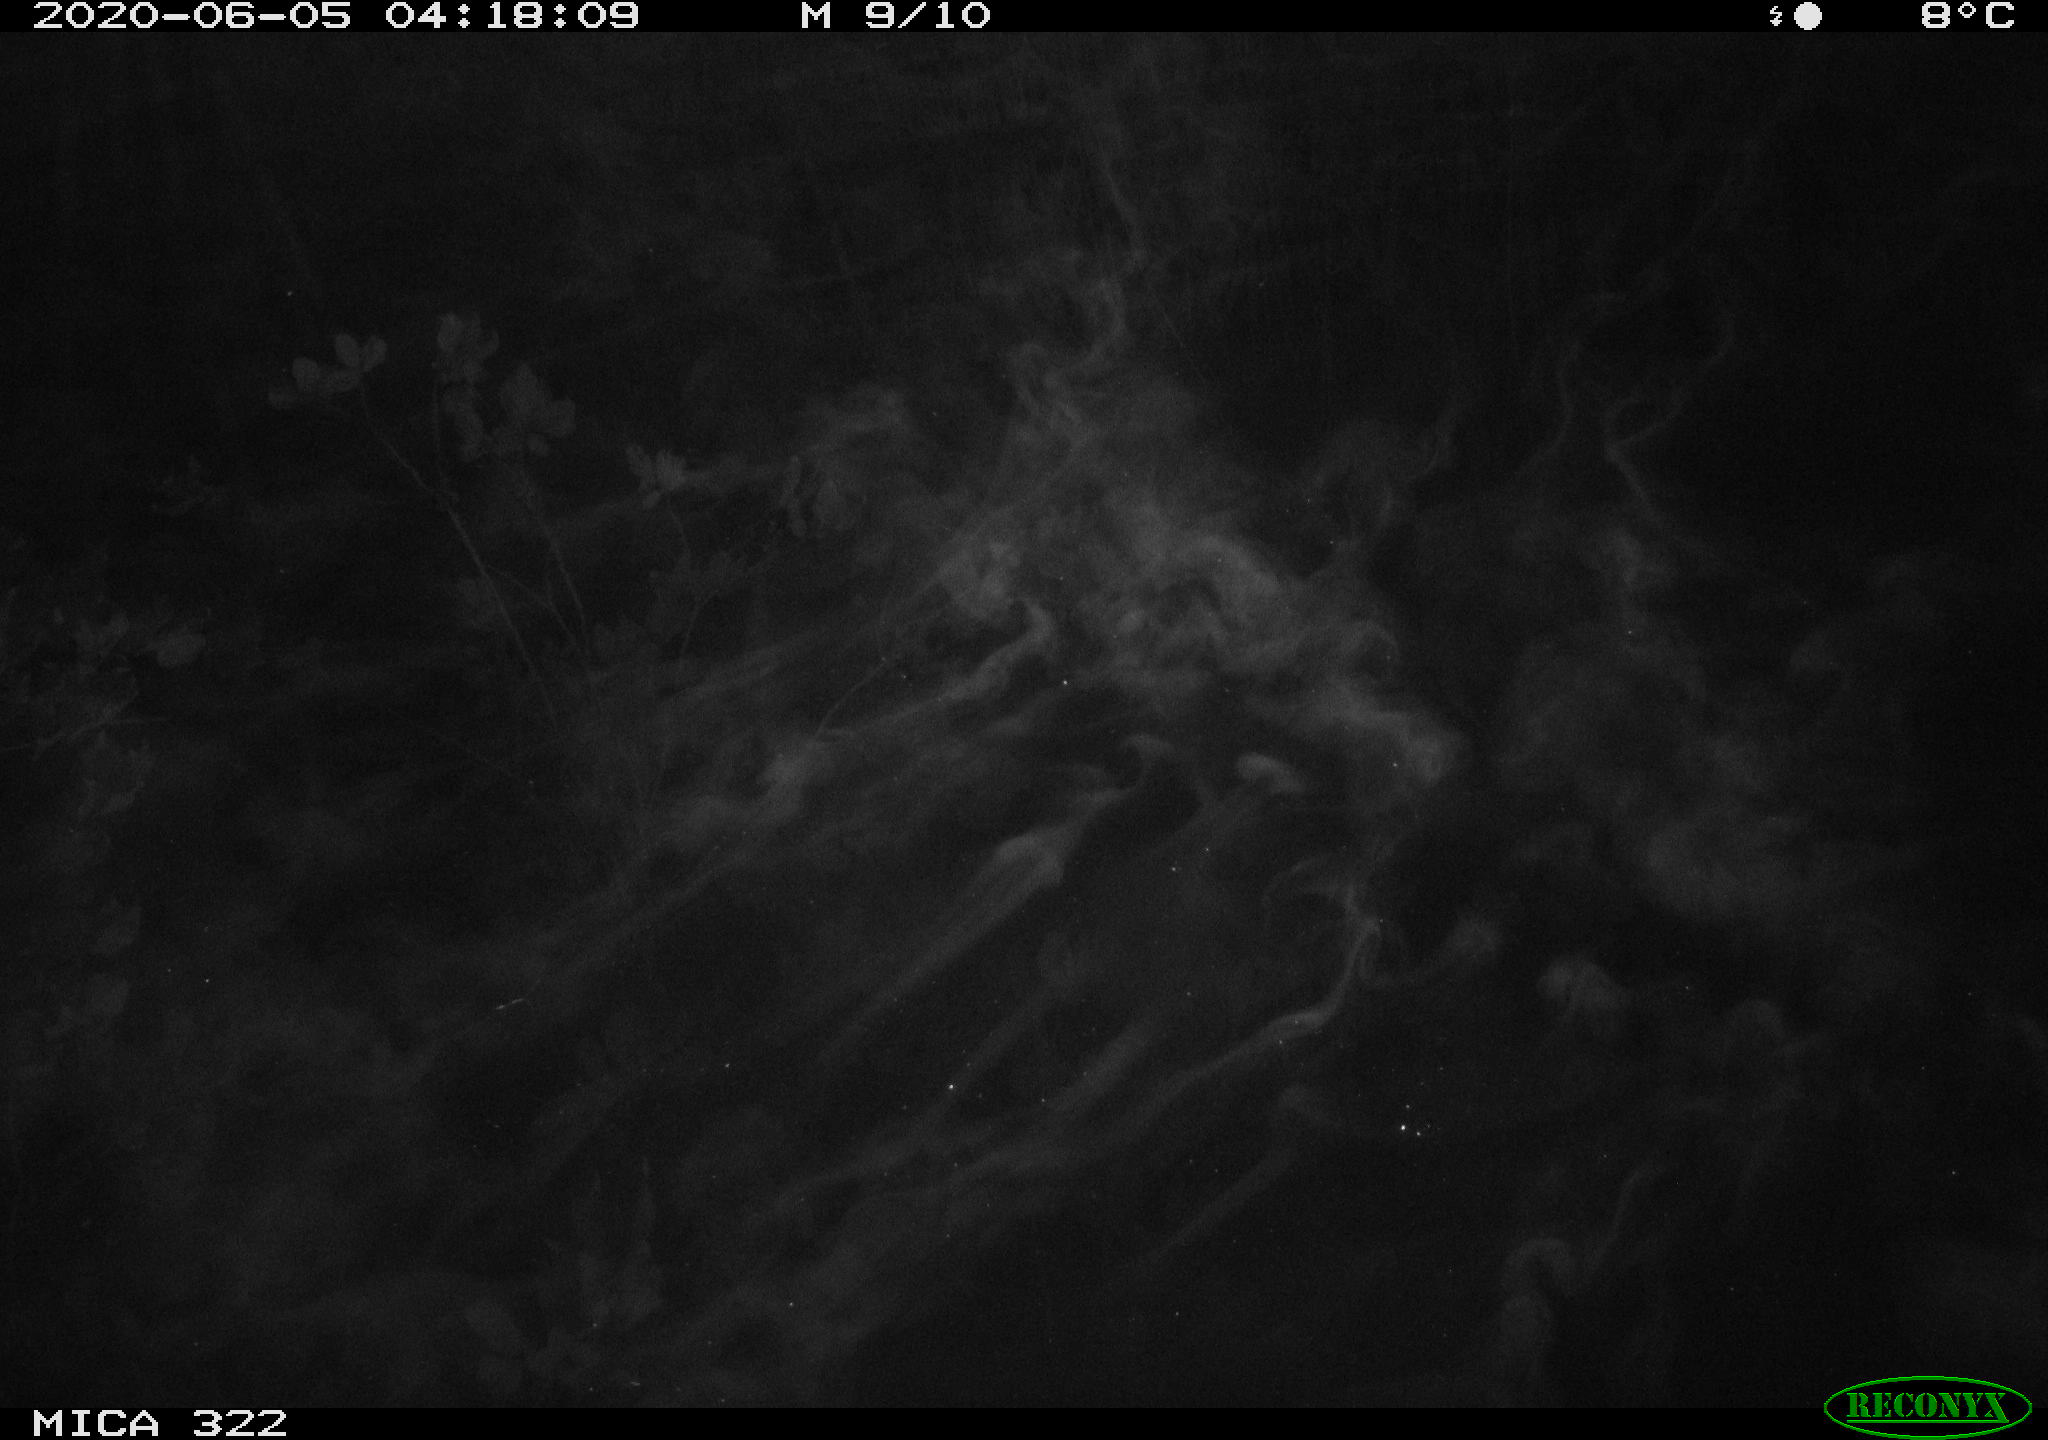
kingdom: Animalia
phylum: Chordata
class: Aves
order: Anseriformes
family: Anatidae
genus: Anas
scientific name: Anas platyrhynchos
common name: Mallard
